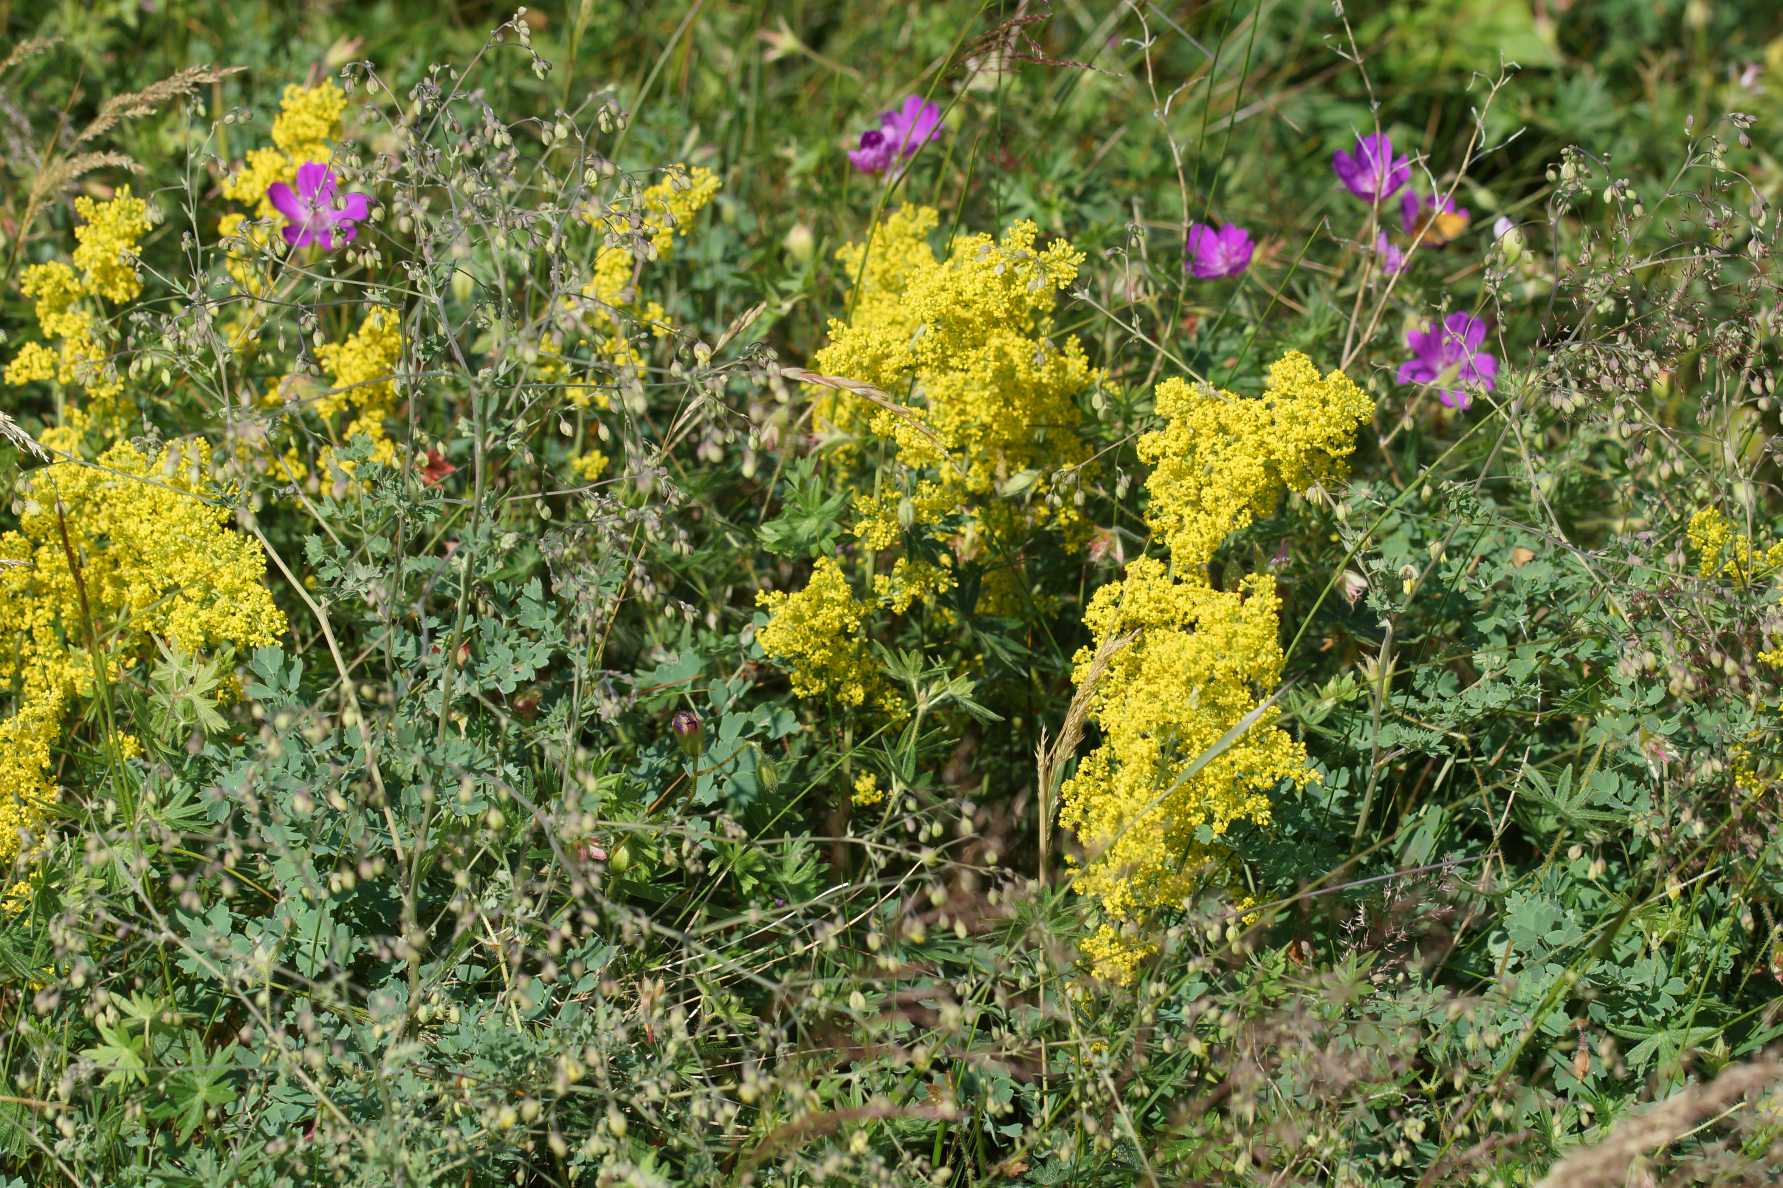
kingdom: Plantae
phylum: Tracheophyta
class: Magnoliopsida
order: Gentianales
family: Rubiaceae
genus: Galium
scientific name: Galium verum
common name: Gul snerre
